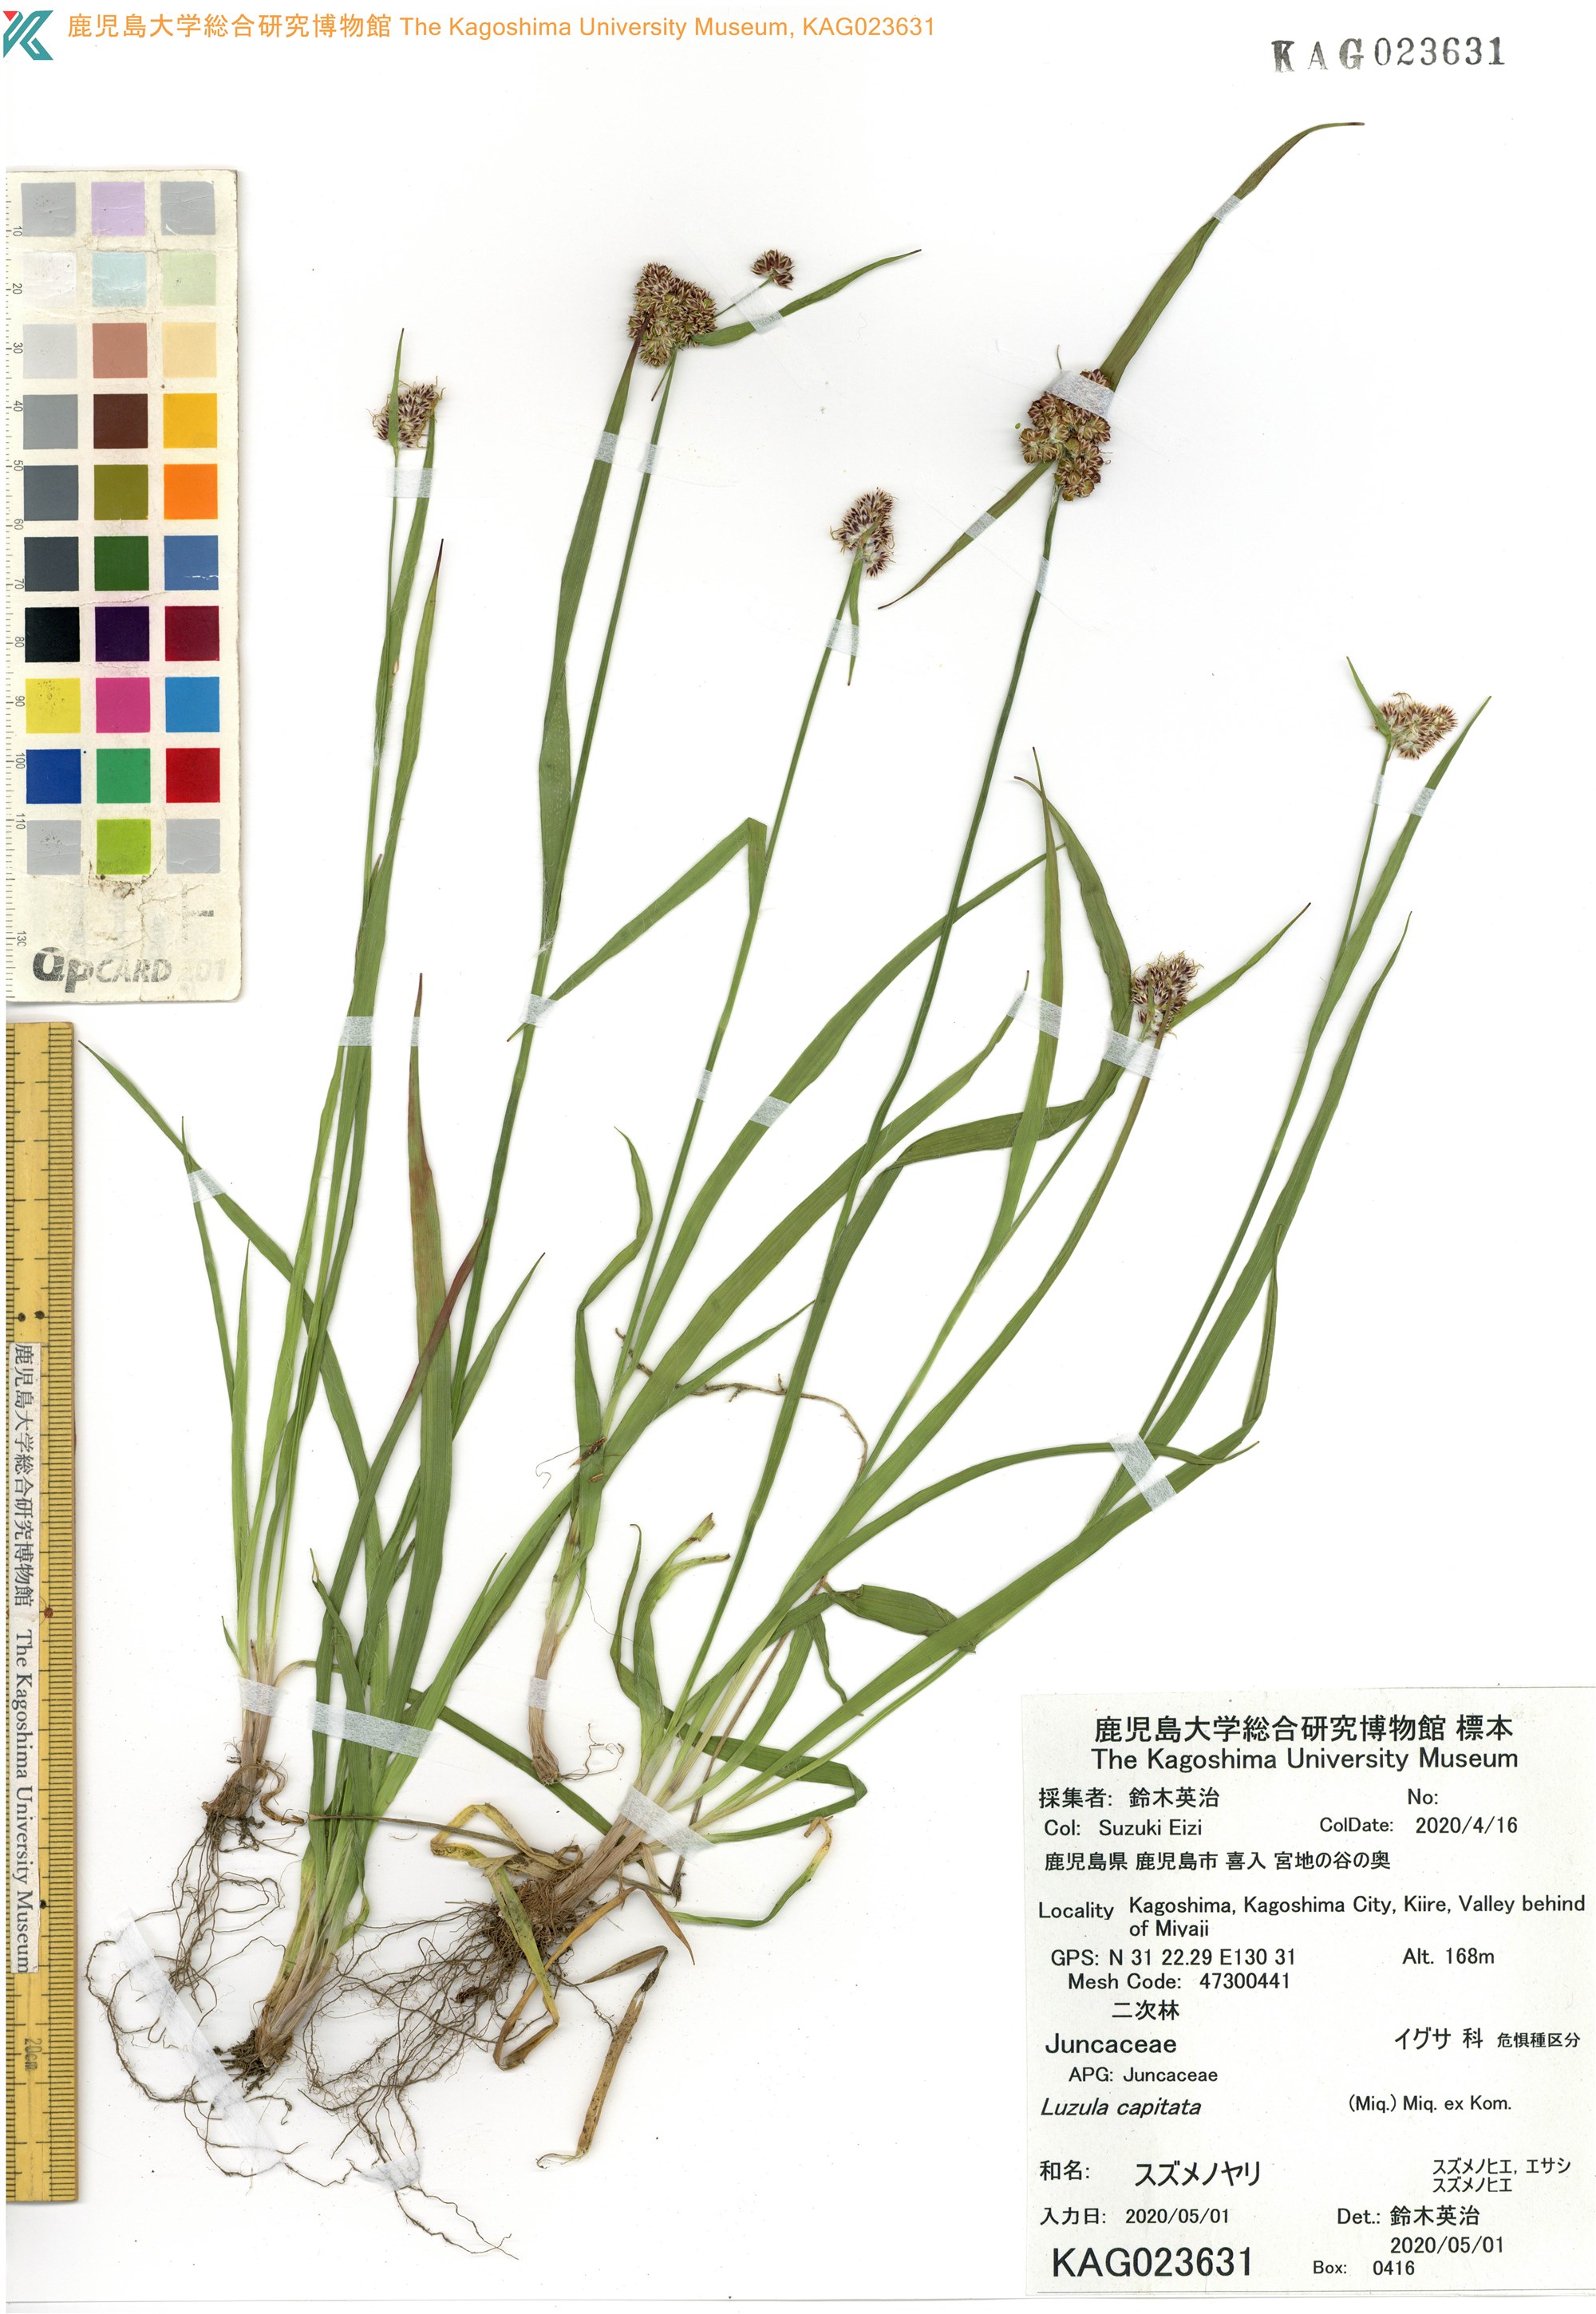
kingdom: Plantae
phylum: Tracheophyta
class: Liliopsida
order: Poales
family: Juncaceae
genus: Luzula
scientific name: Luzula capitata
